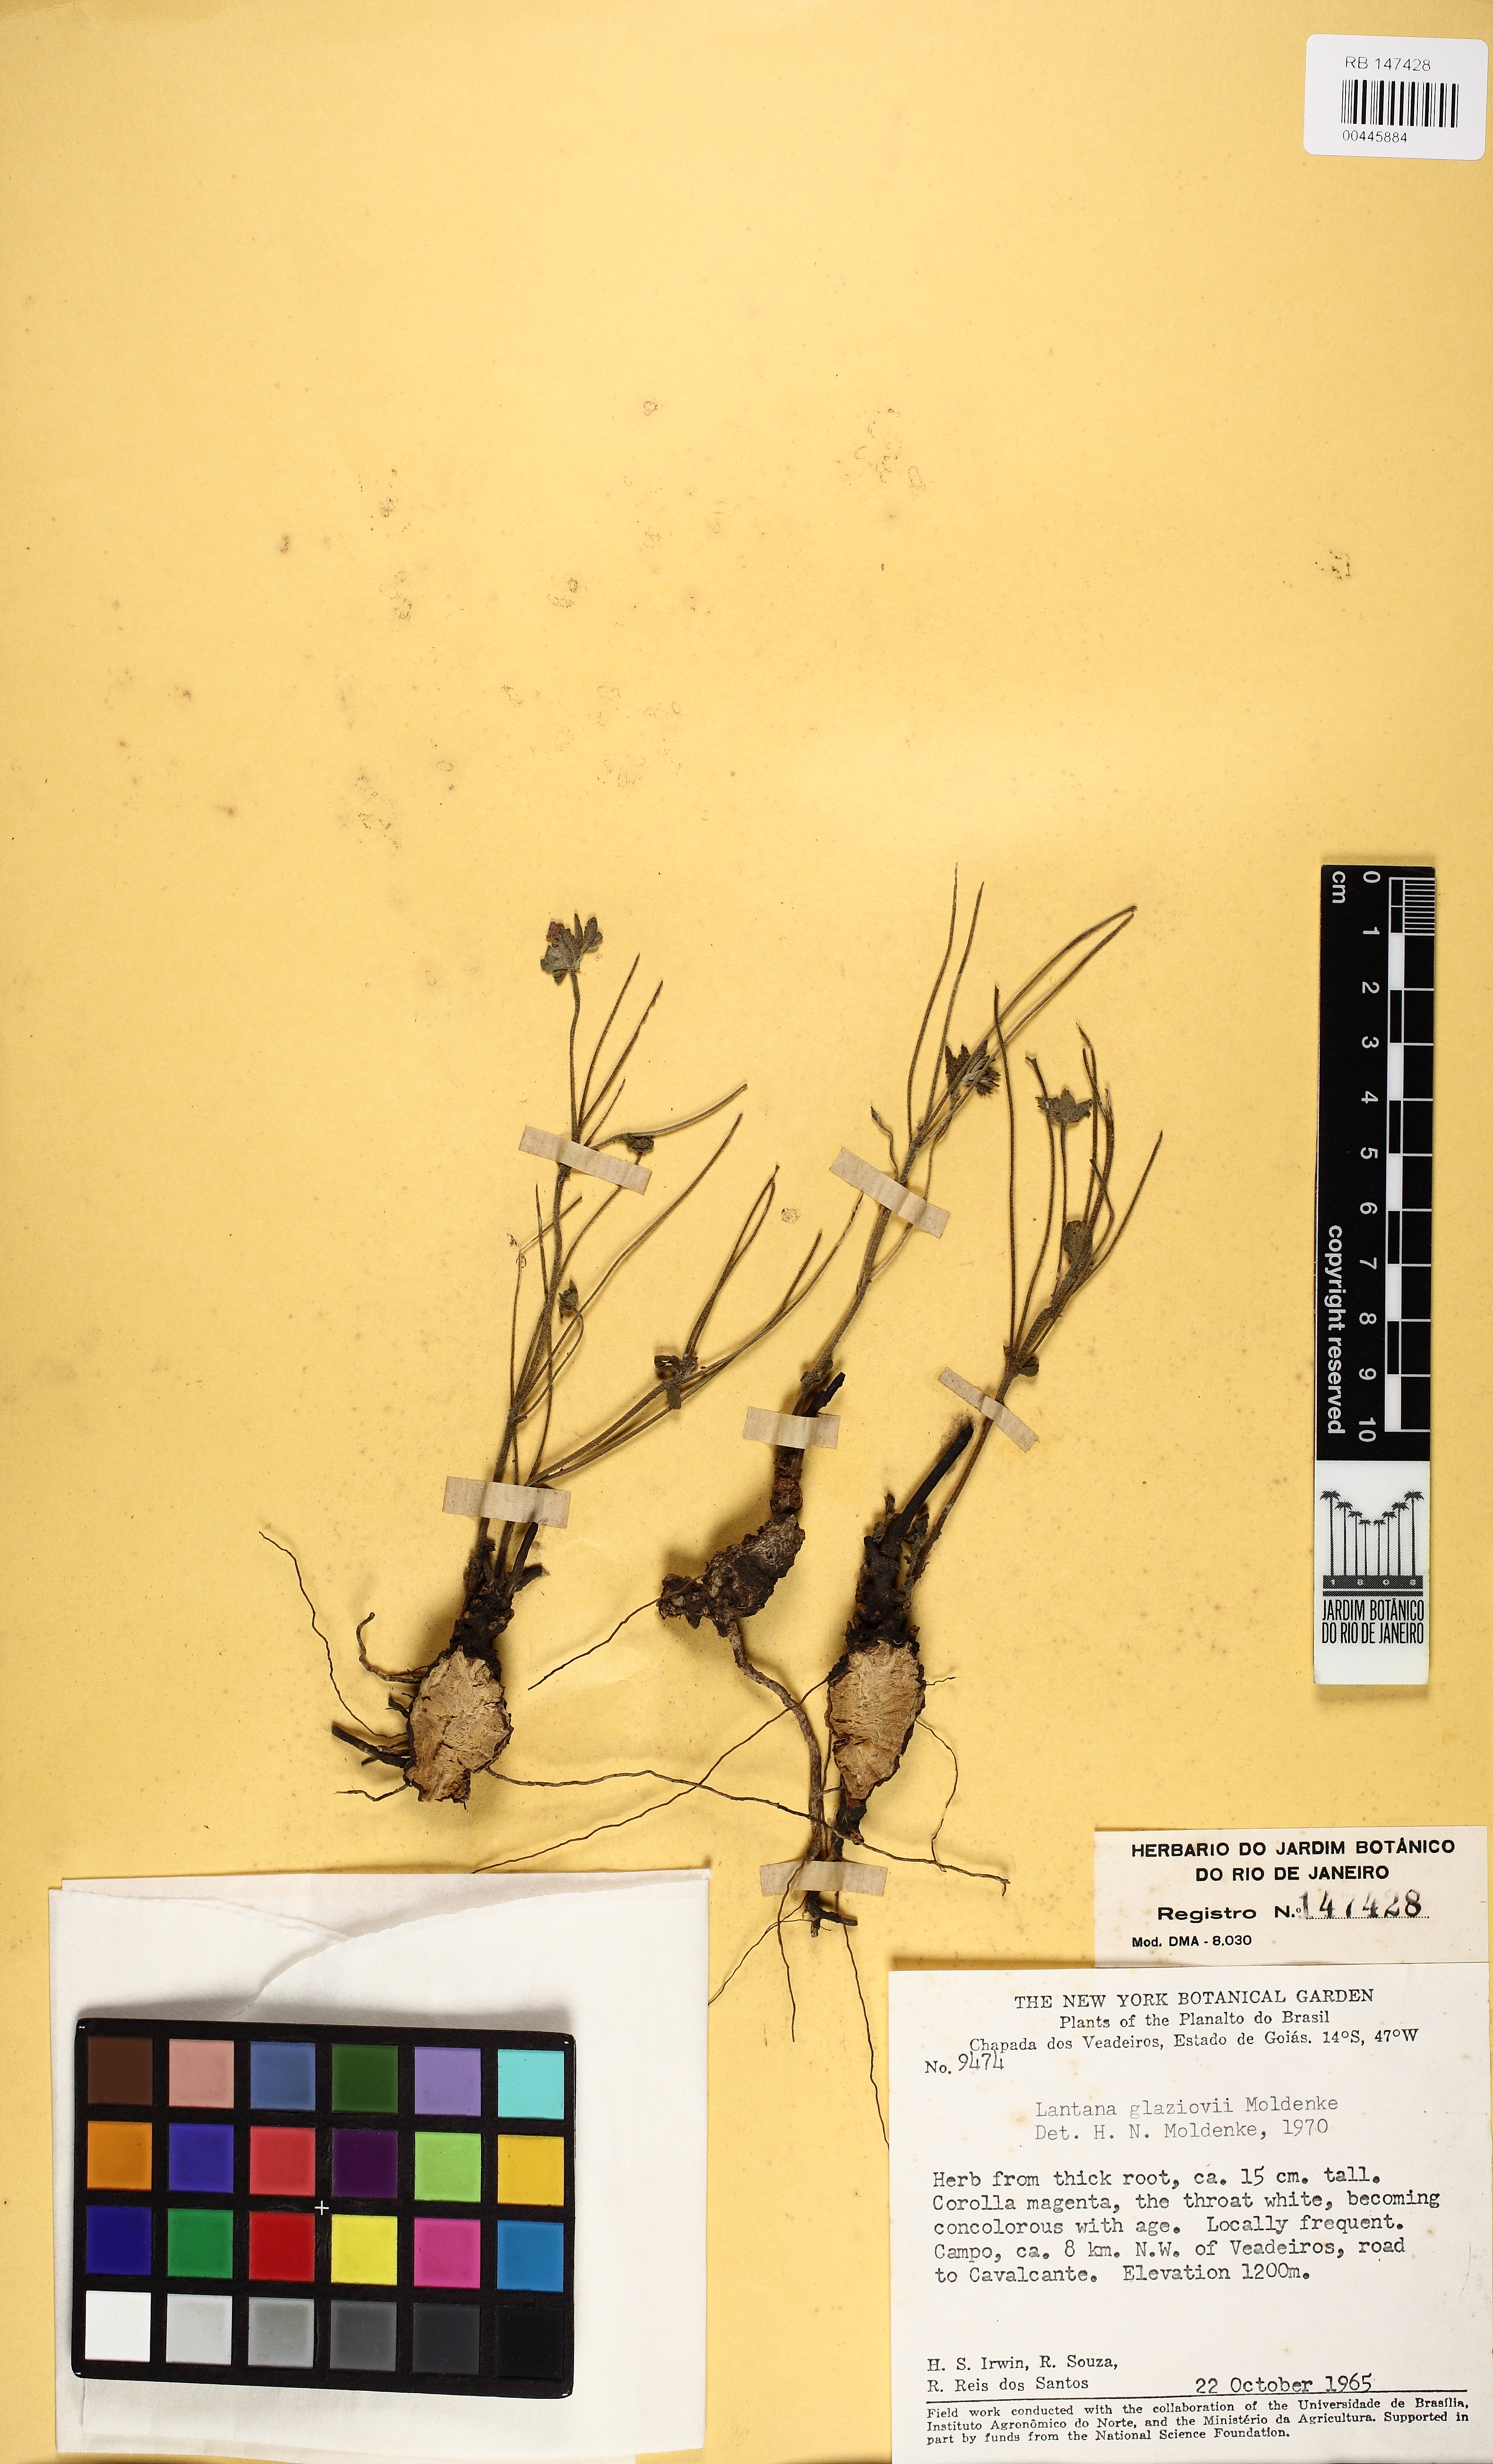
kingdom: Plantae
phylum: Tracheophyta
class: Magnoliopsida
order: Lamiales
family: Verbenaceae
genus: Lantana
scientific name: Lantana glaziovii
